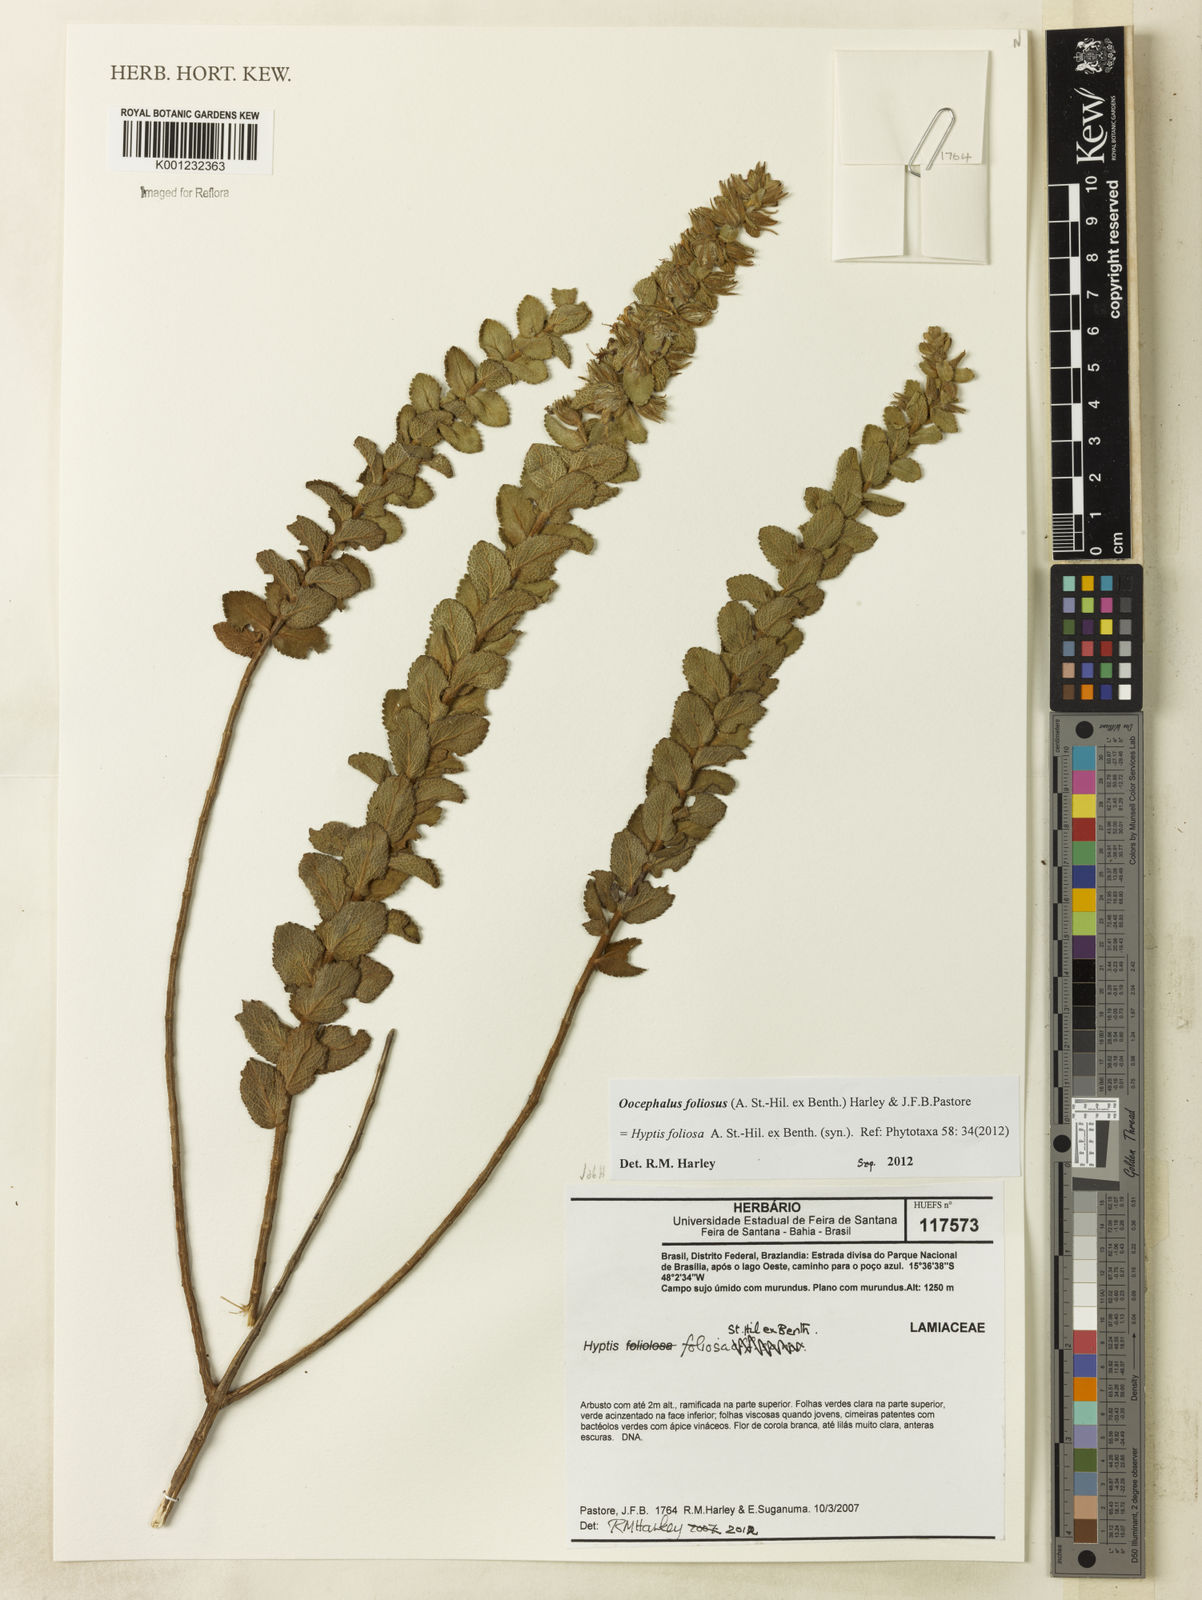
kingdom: Plantae
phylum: Tracheophyta
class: Magnoliopsida
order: Lamiales
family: Lamiaceae
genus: Oocephalus
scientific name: Oocephalus
